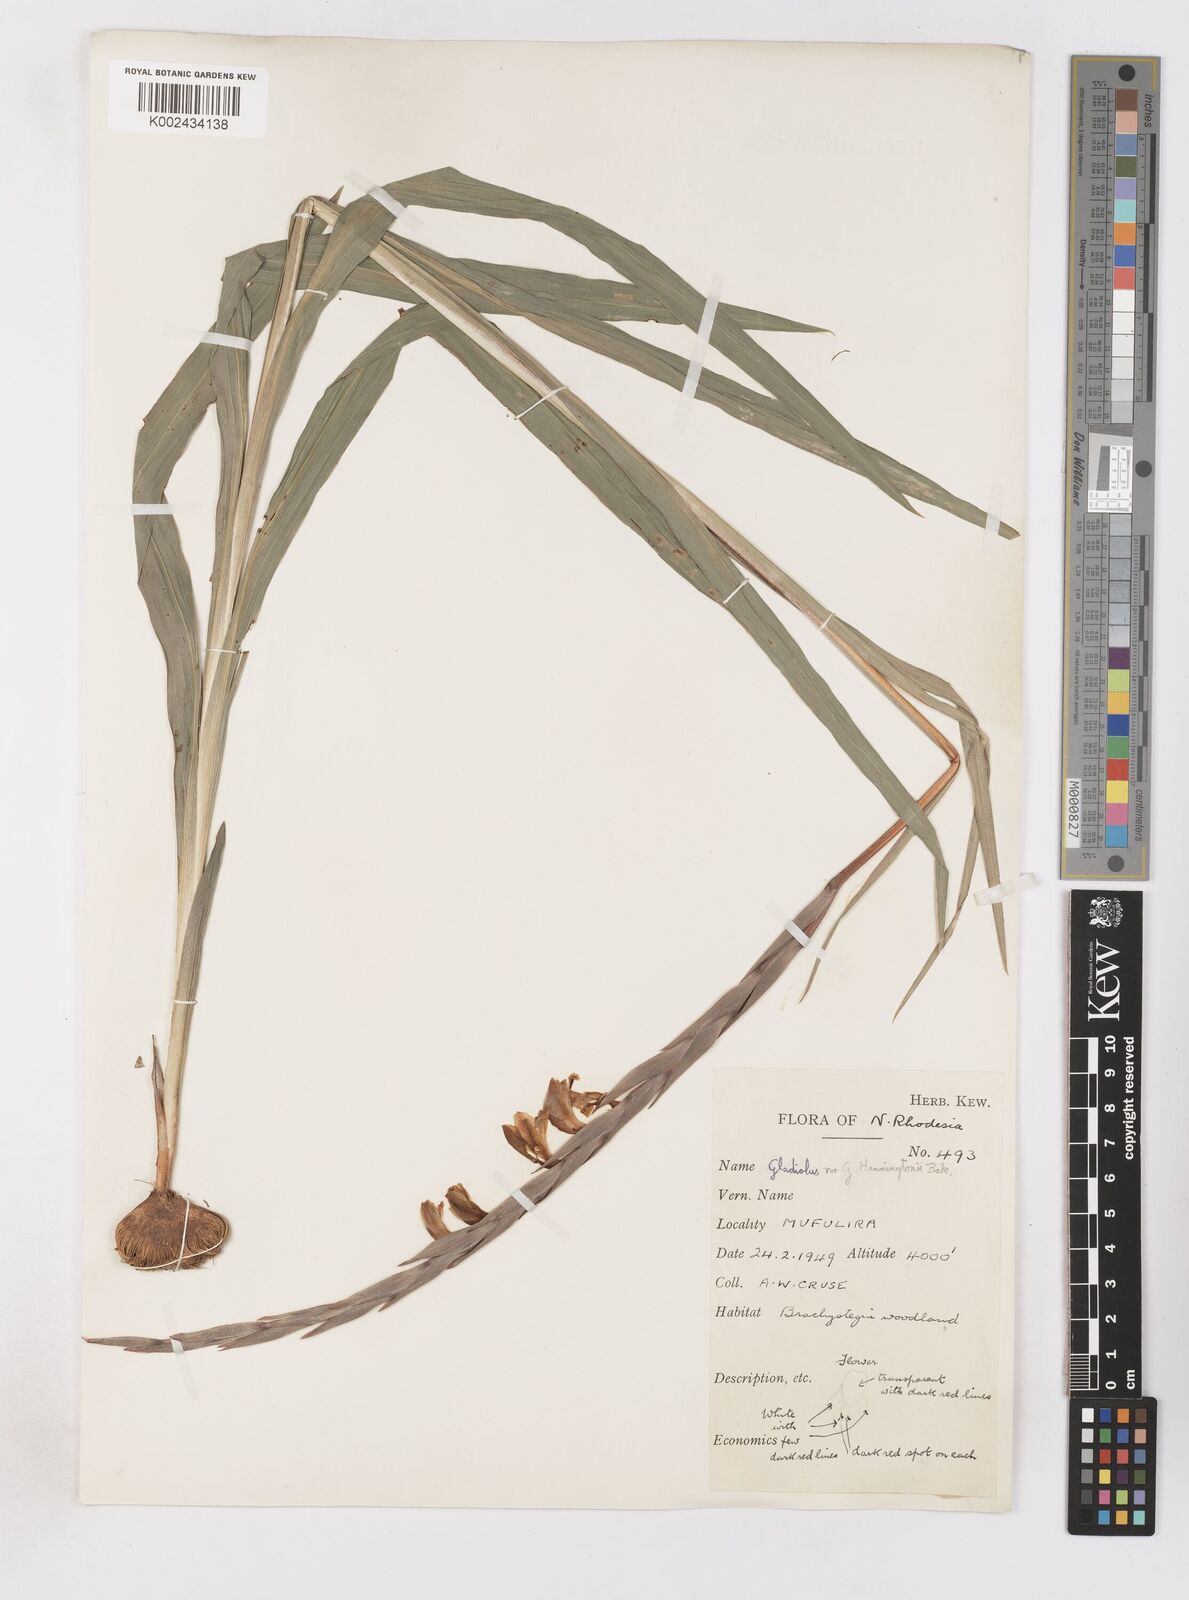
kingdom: Plantae
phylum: Tracheophyta
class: Liliopsida
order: Asparagales
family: Iridaceae
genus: Gladiolus
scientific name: Gladiolus gregarius
